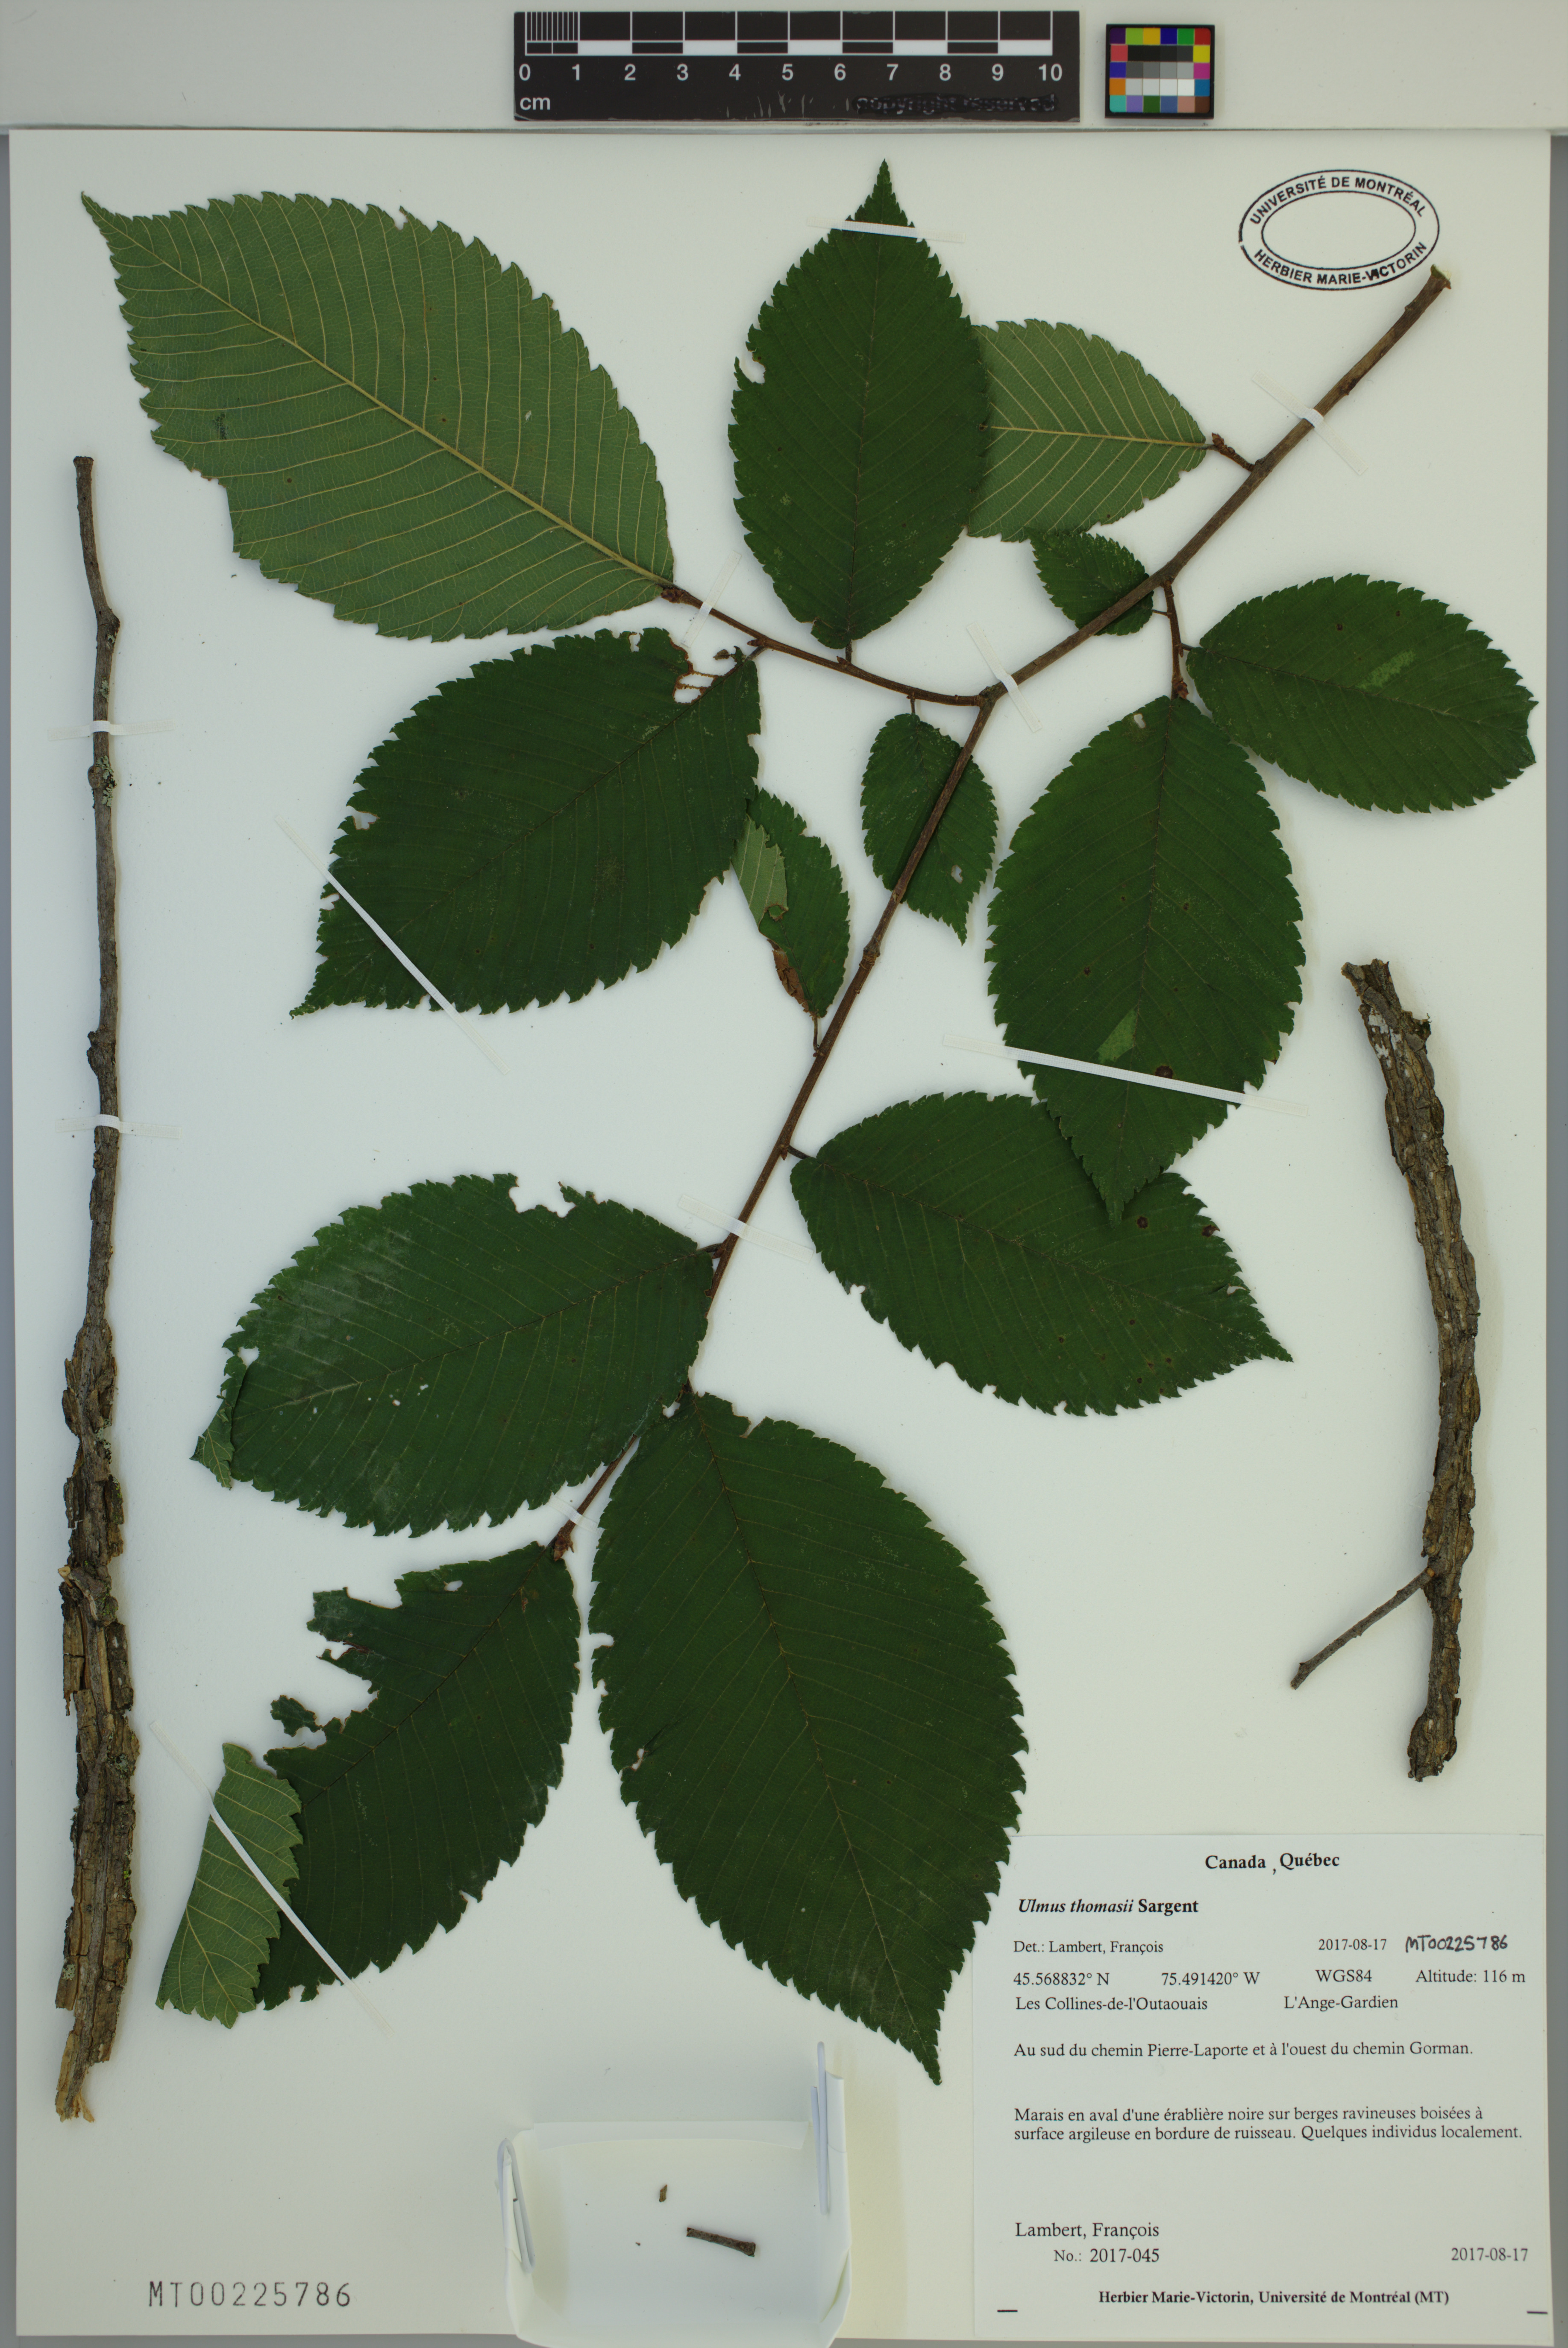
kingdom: Plantae
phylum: Tracheophyta
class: Magnoliopsida
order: Rosales
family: Ulmaceae
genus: Ulmus
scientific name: Ulmus thomasii
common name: Rock elm
